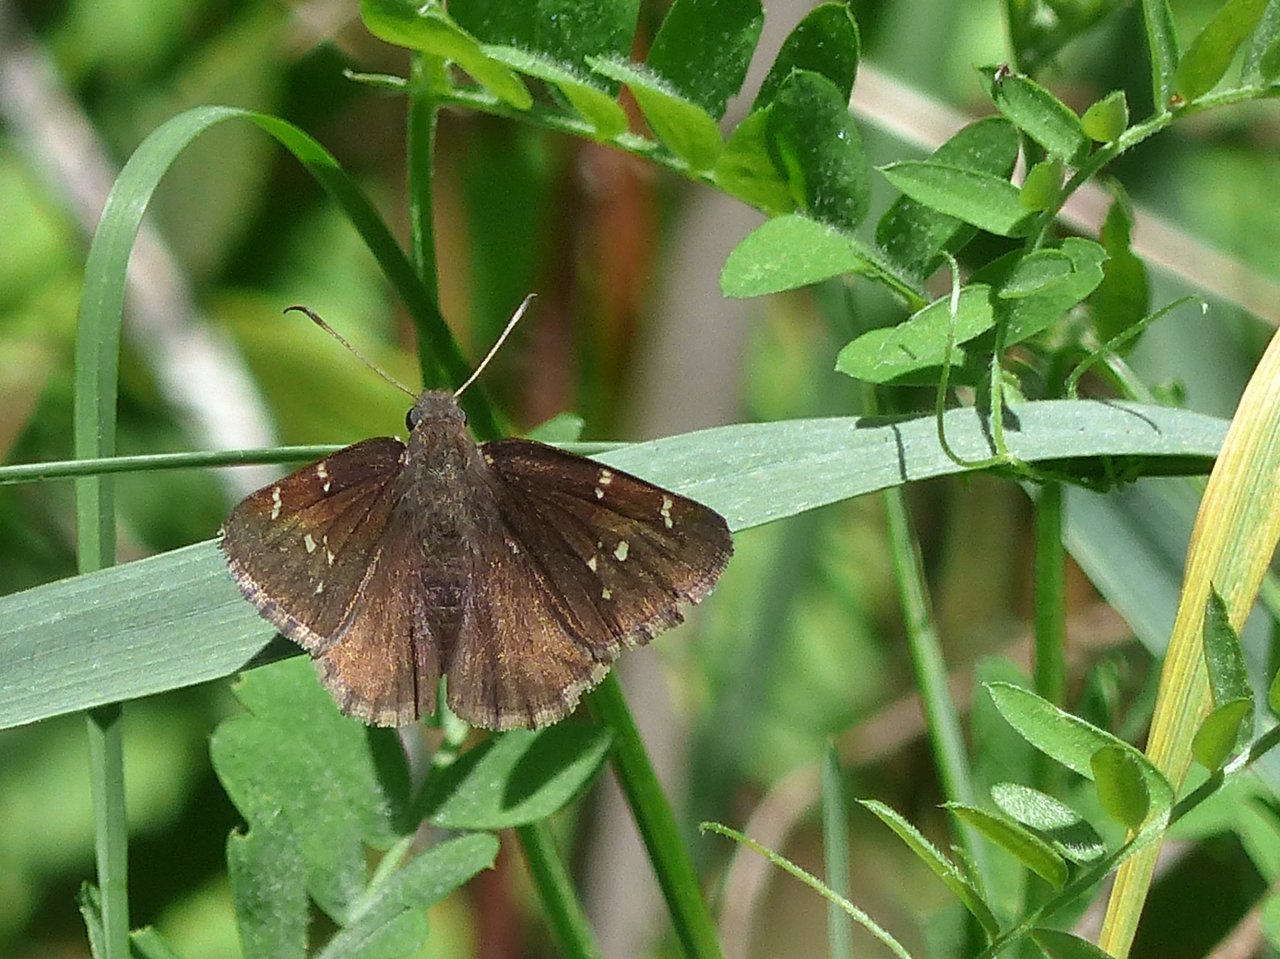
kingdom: Animalia
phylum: Arthropoda
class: Insecta
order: Lepidoptera
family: Hesperiidae
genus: Autochton
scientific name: Autochton
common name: Northern Cloudywing
